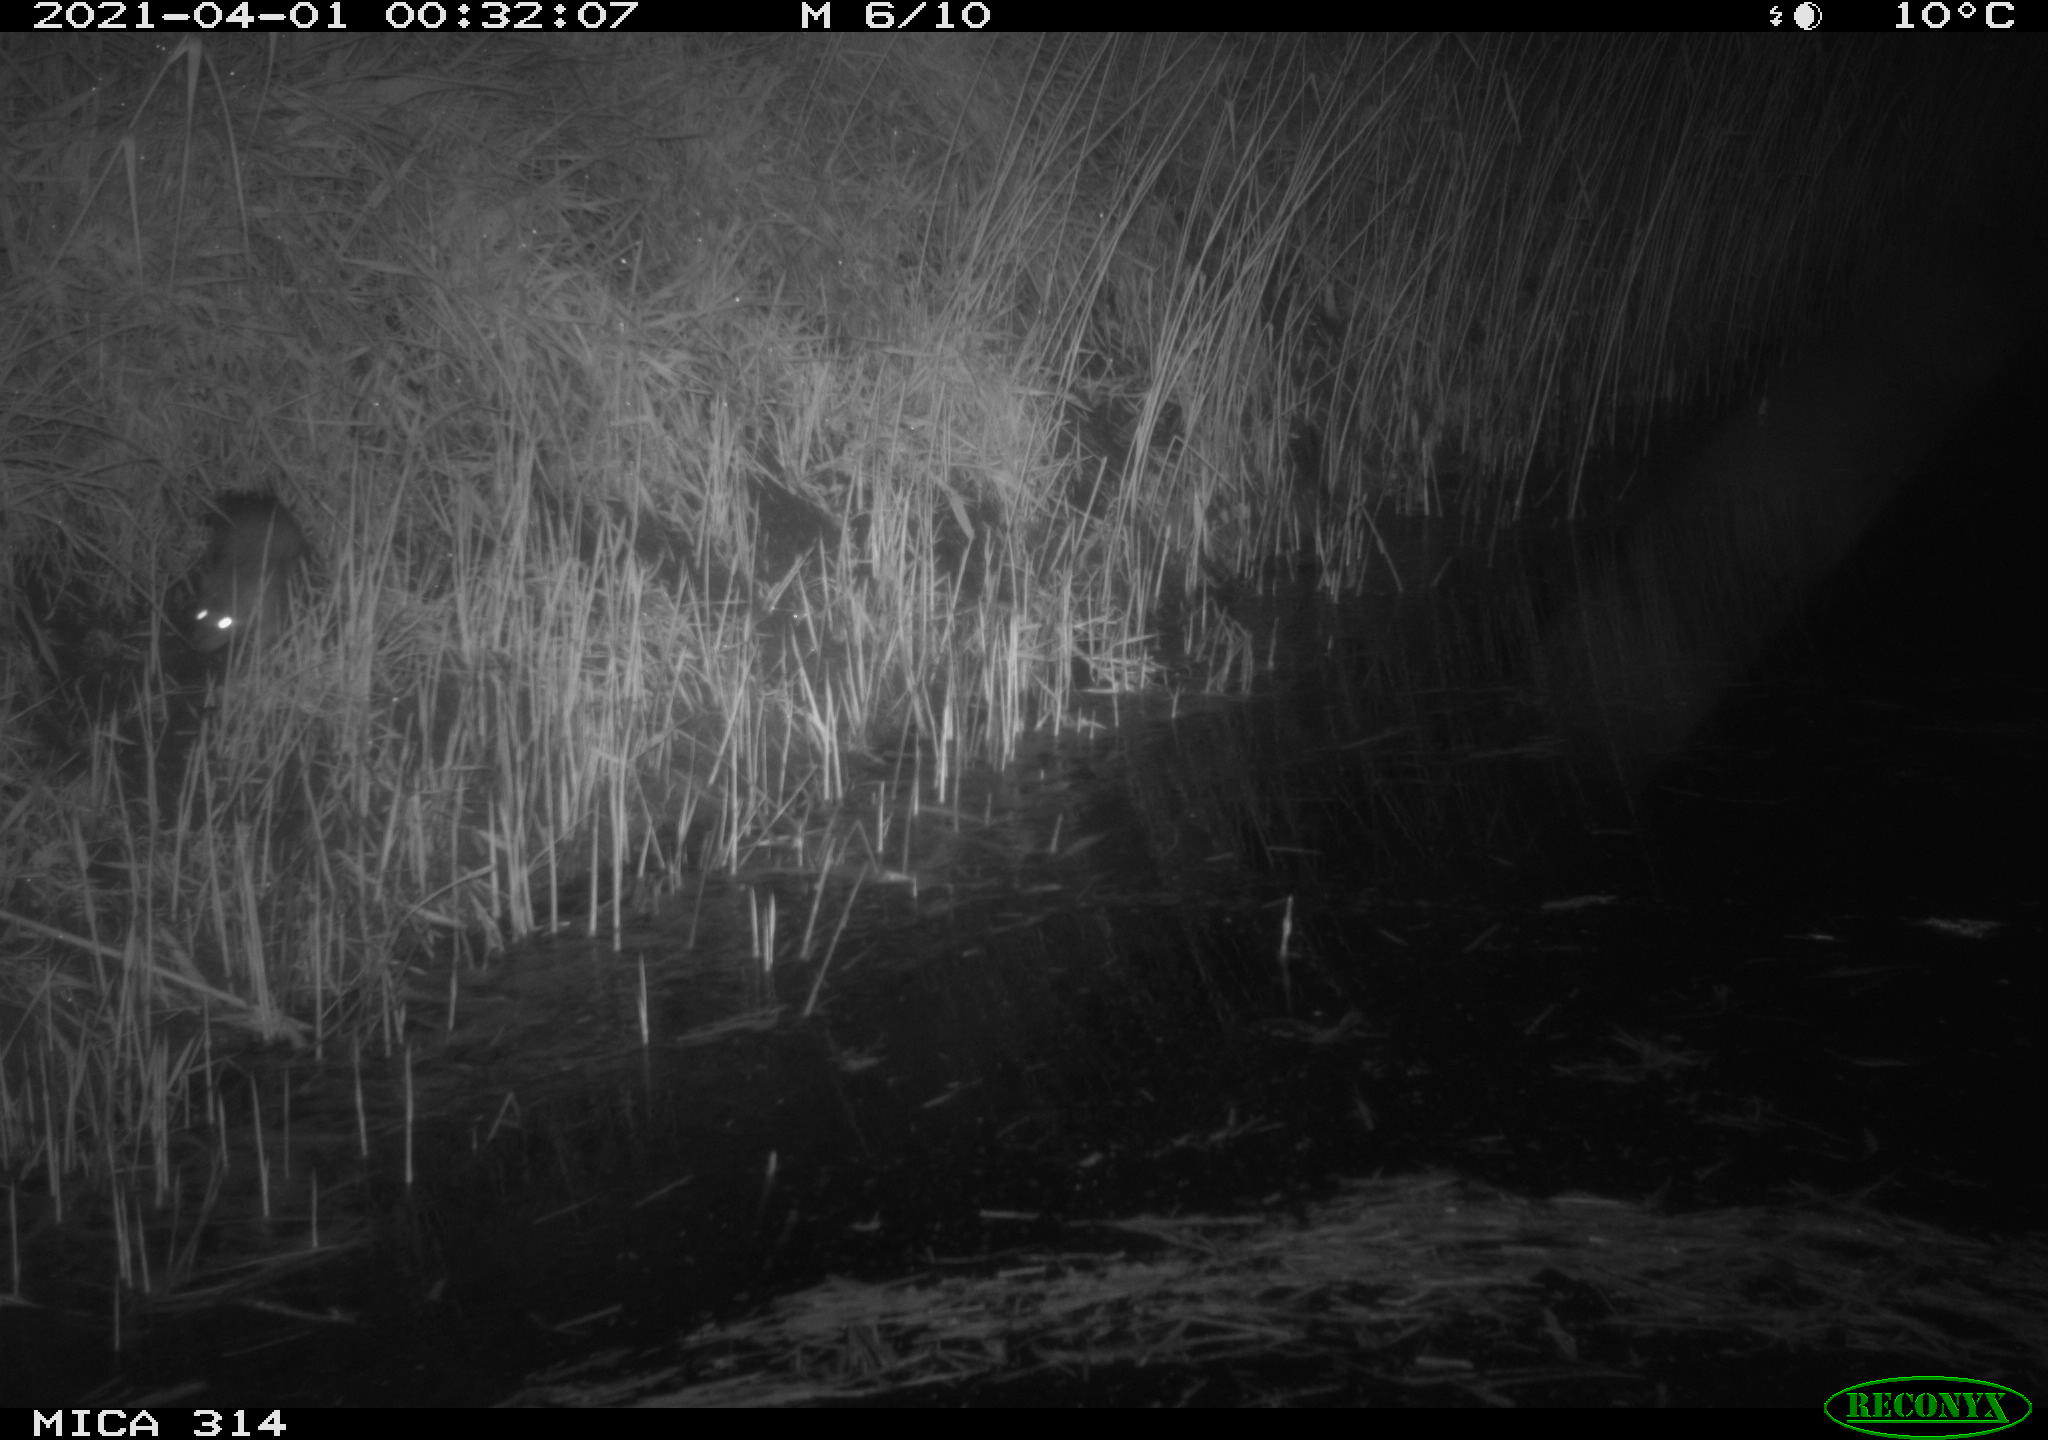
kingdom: Animalia
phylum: Chordata
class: Mammalia
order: Rodentia
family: Muridae
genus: Rattus
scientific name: Rattus norvegicus
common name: Brown rat
